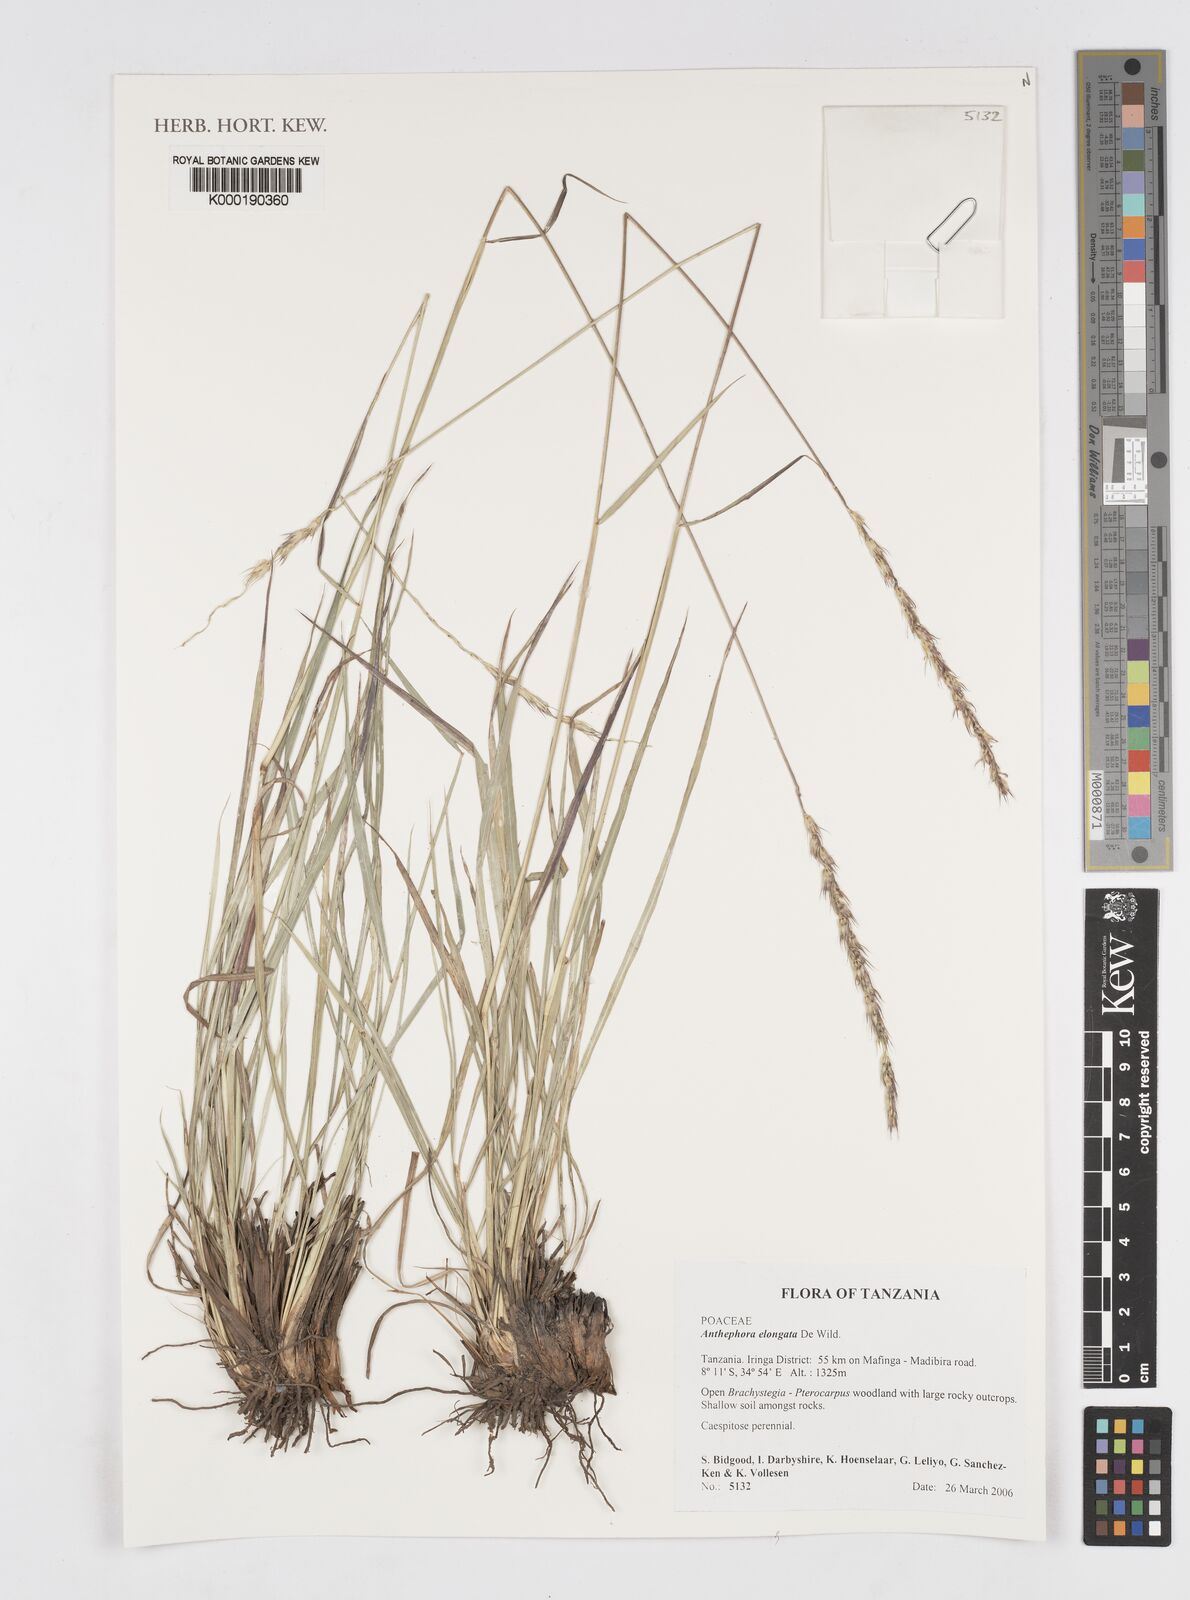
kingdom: Plantae
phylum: Tracheophyta
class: Liliopsida
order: Poales
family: Poaceae
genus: Anthephora
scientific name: Anthephora elongata
